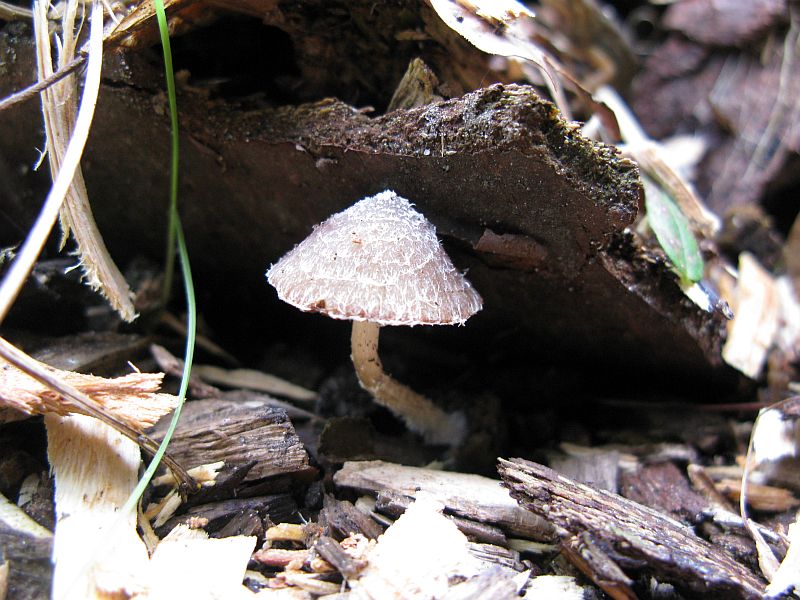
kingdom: Fungi
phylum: Basidiomycota
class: Agaricomycetes
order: Agaricales
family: Psathyrellaceae
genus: Psathyrella
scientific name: Psathyrella suavissima
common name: sødtduftende mørkhat
